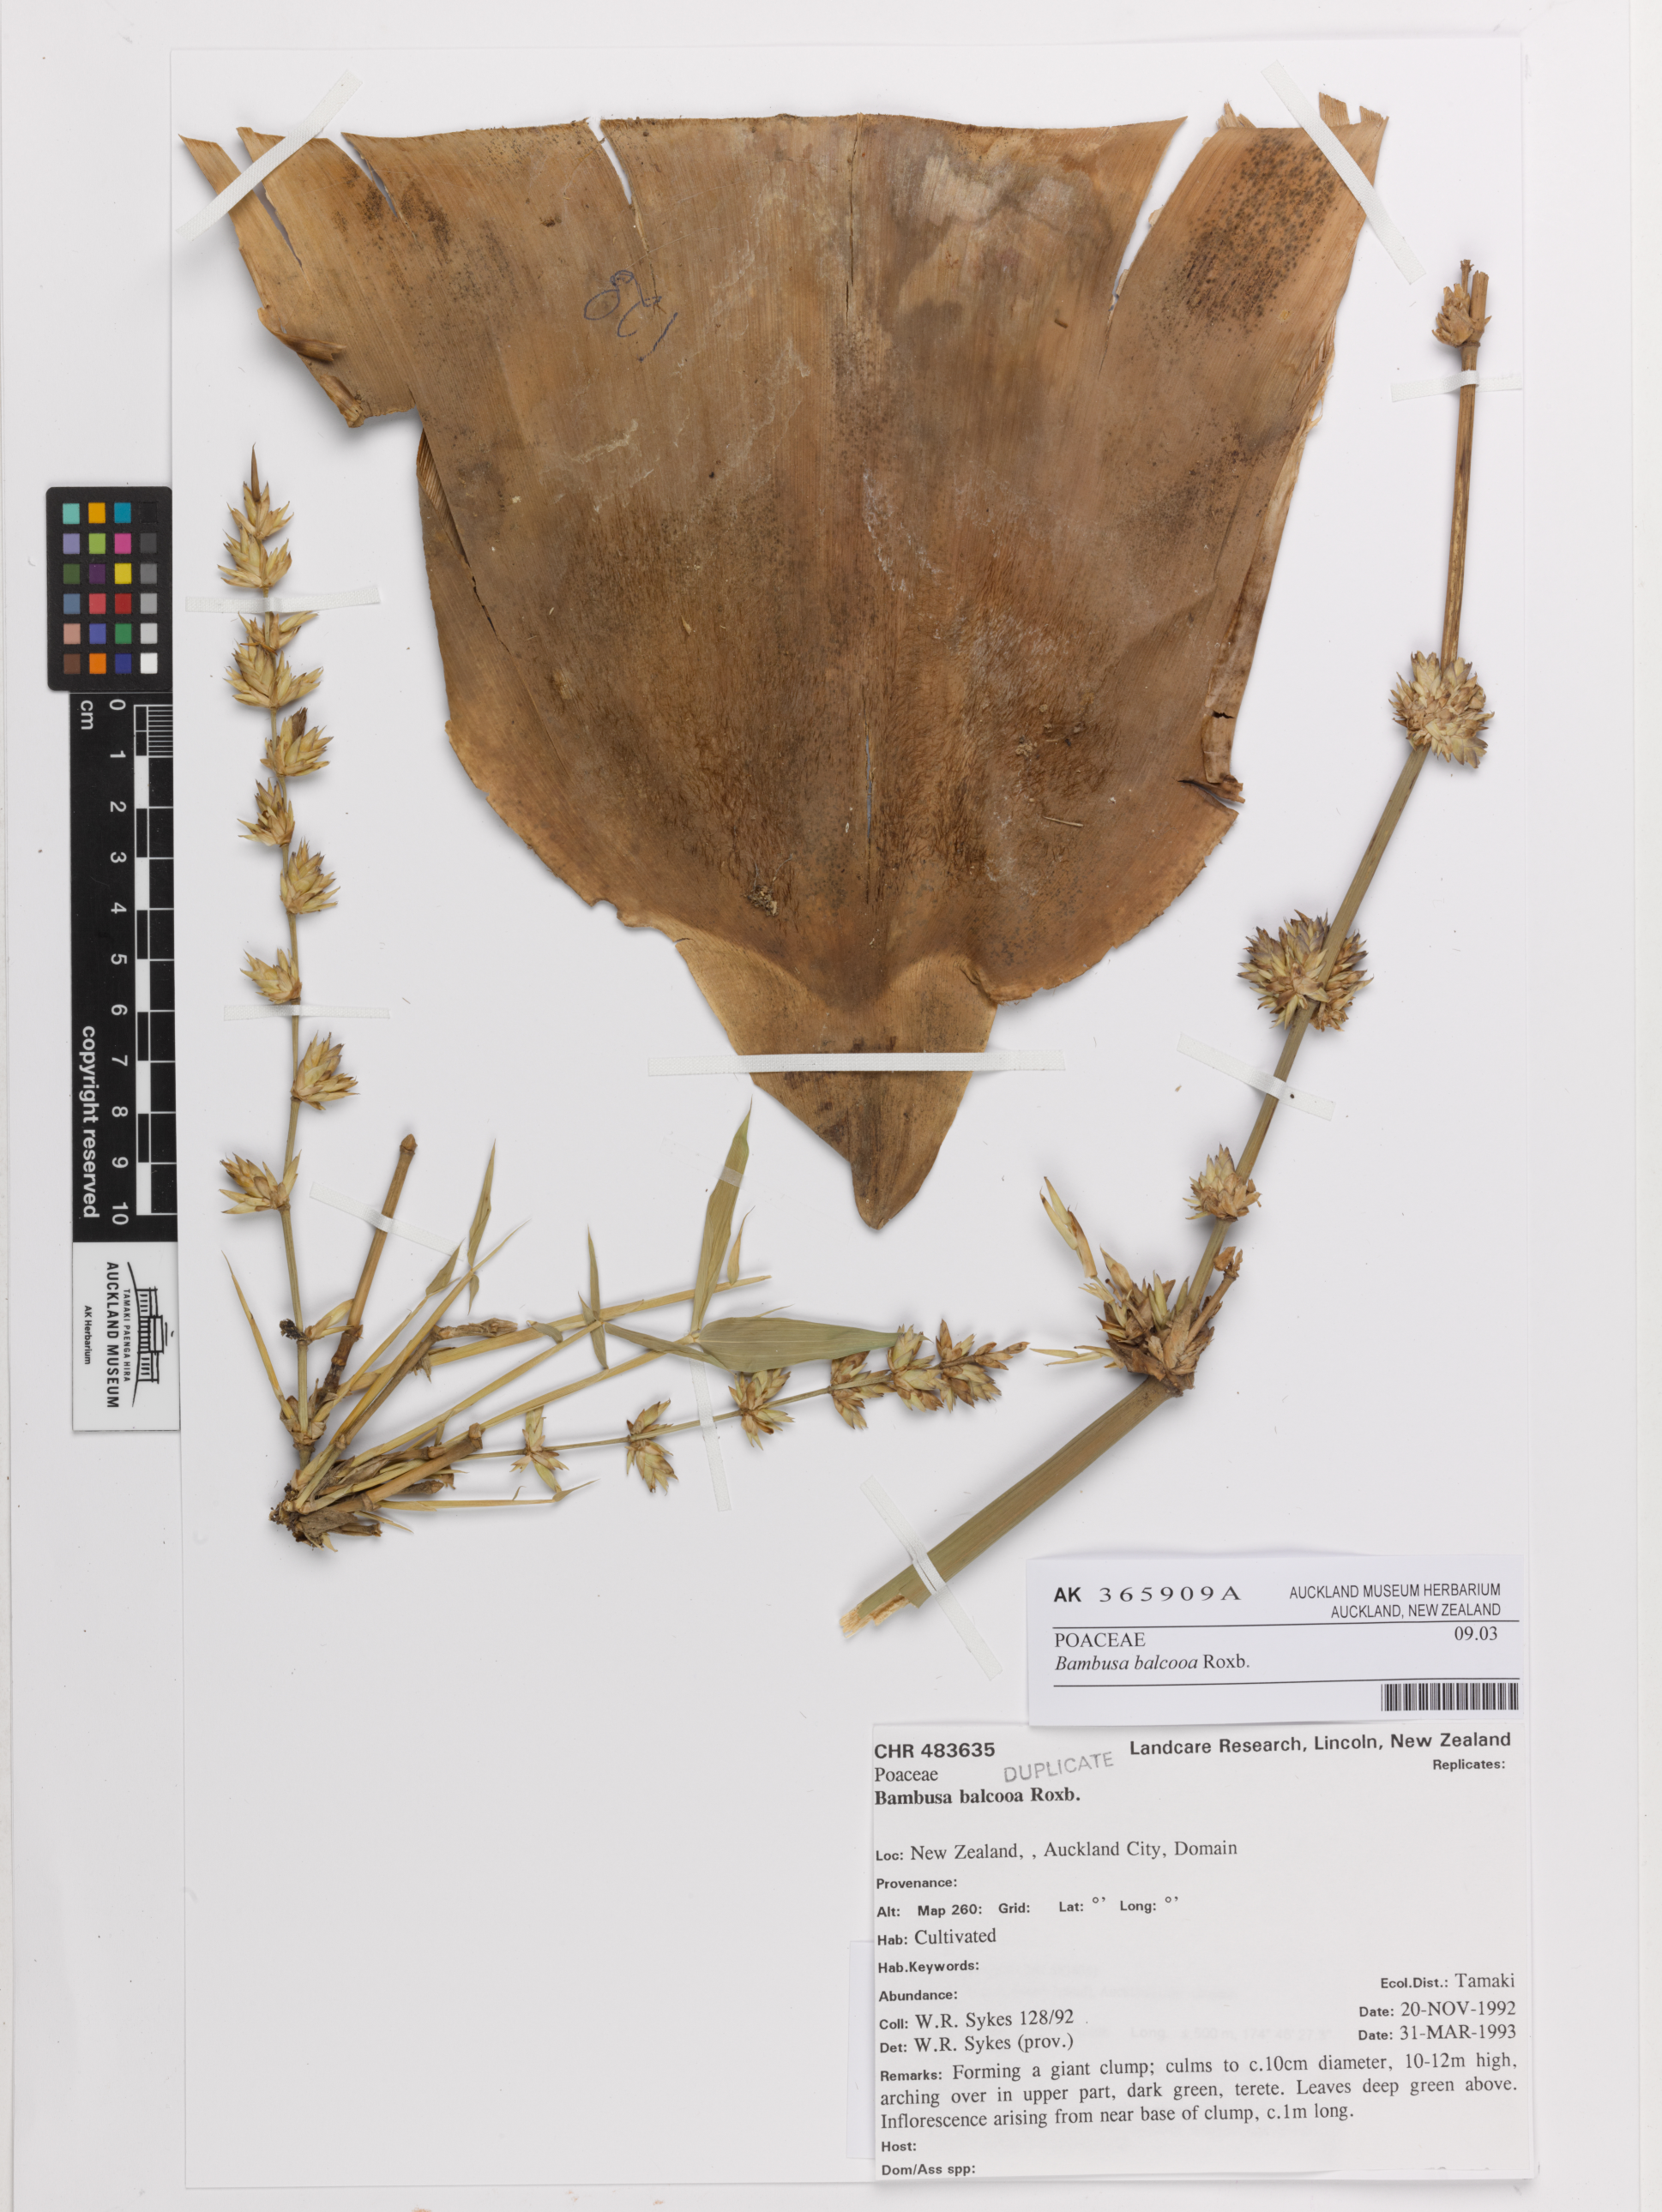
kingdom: Plantae
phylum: Tracheophyta
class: Liliopsida
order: Poales
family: Poaceae
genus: Bambusa
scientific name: Bambusa balcooa
